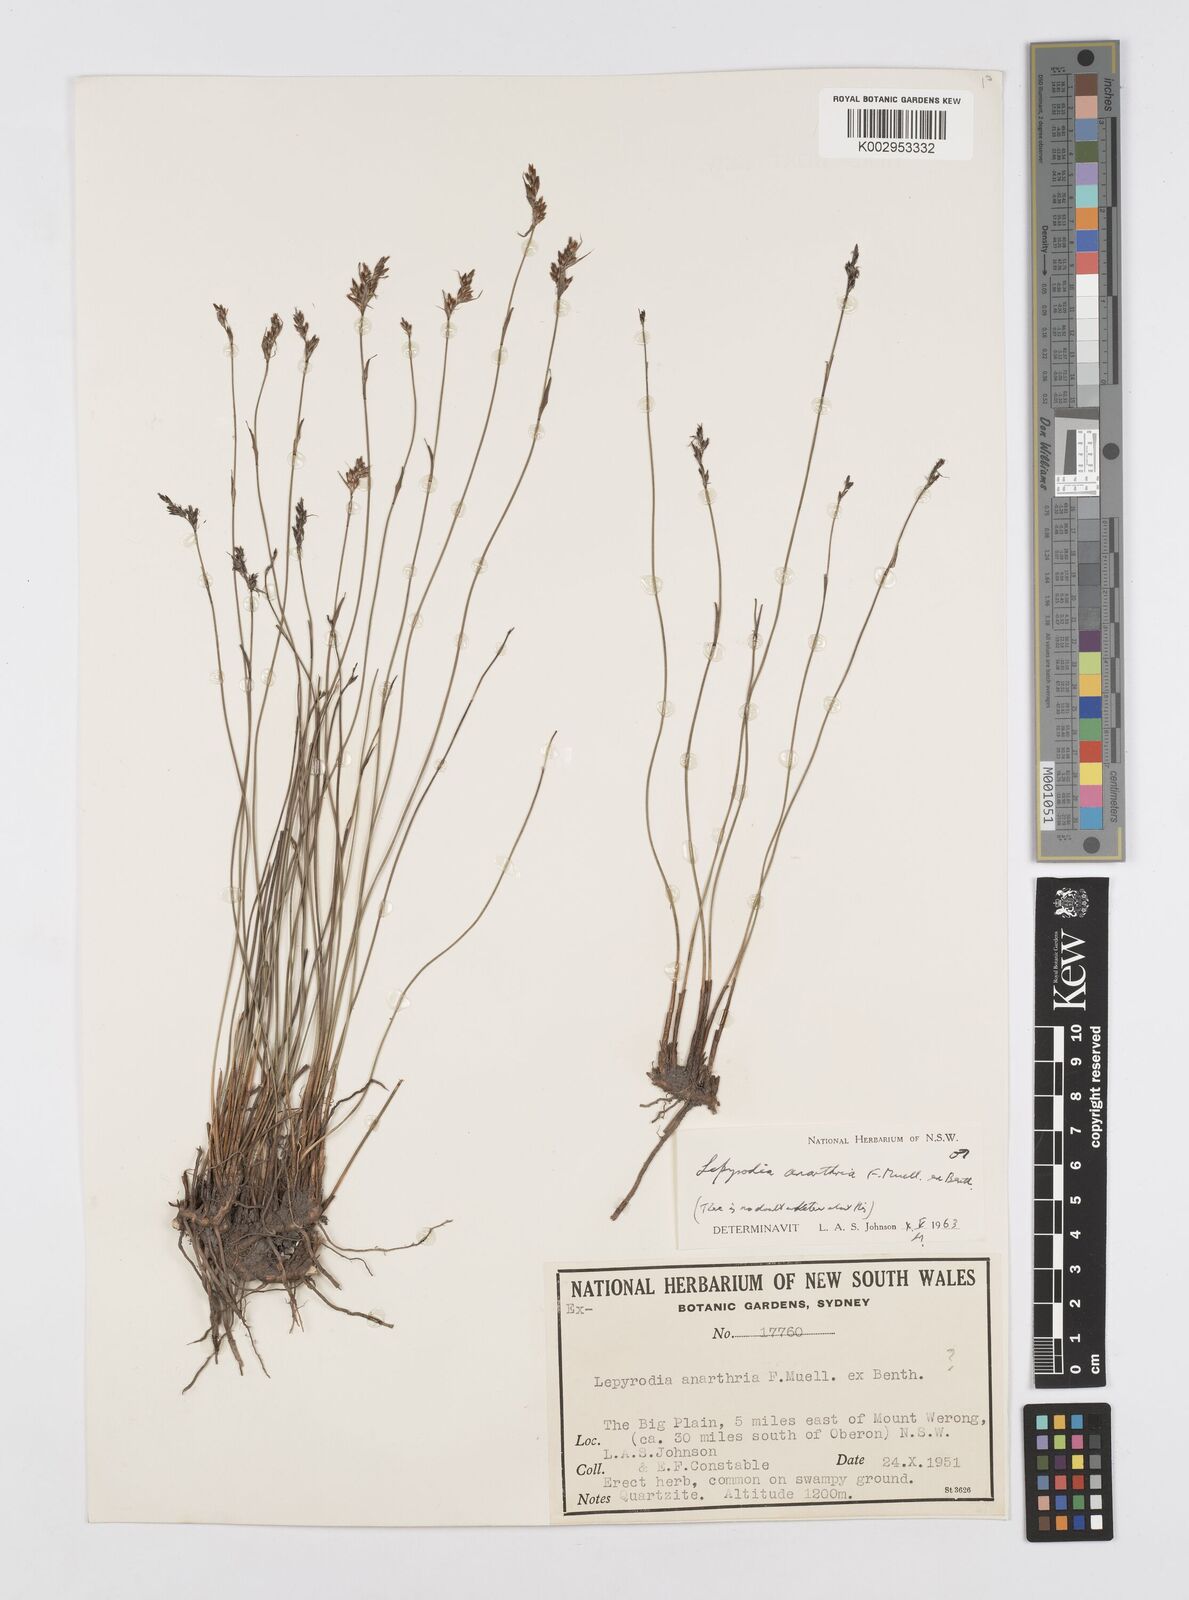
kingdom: Plantae
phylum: Tracheophyta
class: Liliopsida
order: Poales
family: Restionaceae
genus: Lepyrodia
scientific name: Lepyrodia anarthria
